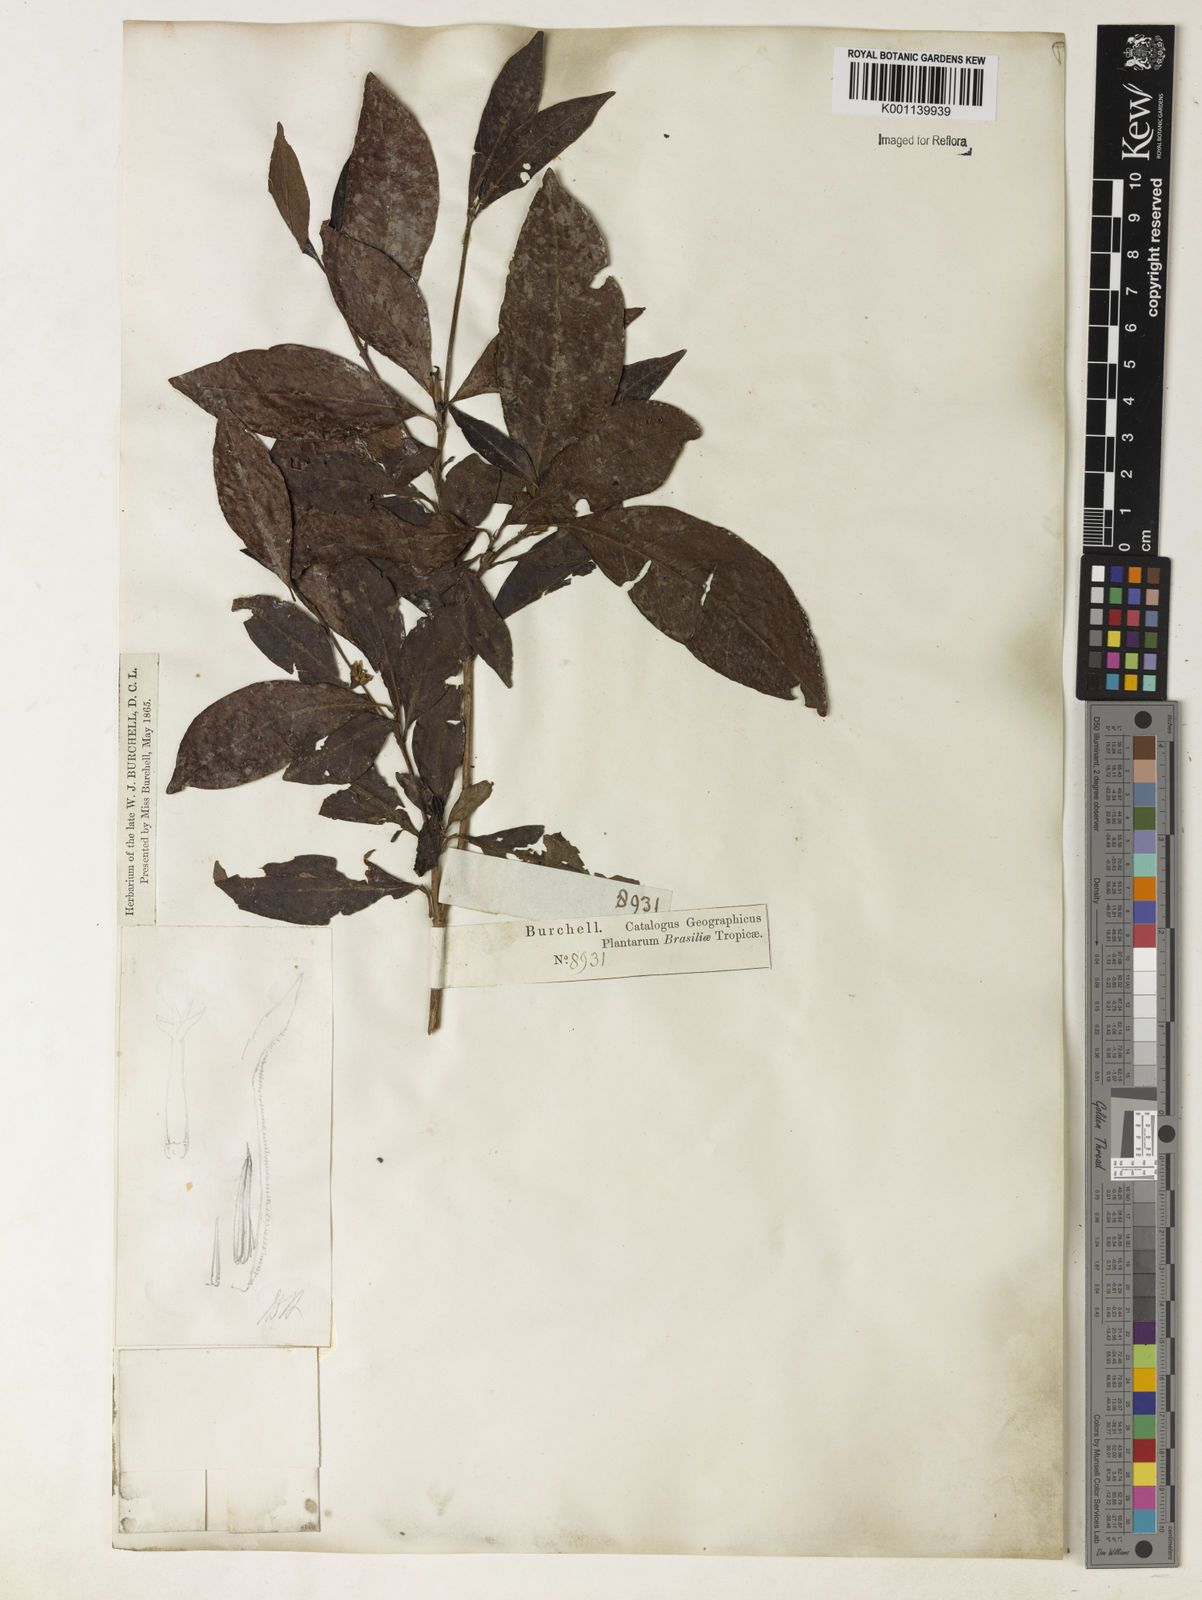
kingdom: Plantae
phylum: Tracheophyta
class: Magnoliopsida
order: Gentianales
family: Rubiaceae
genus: Alibertia
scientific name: Alibertia
